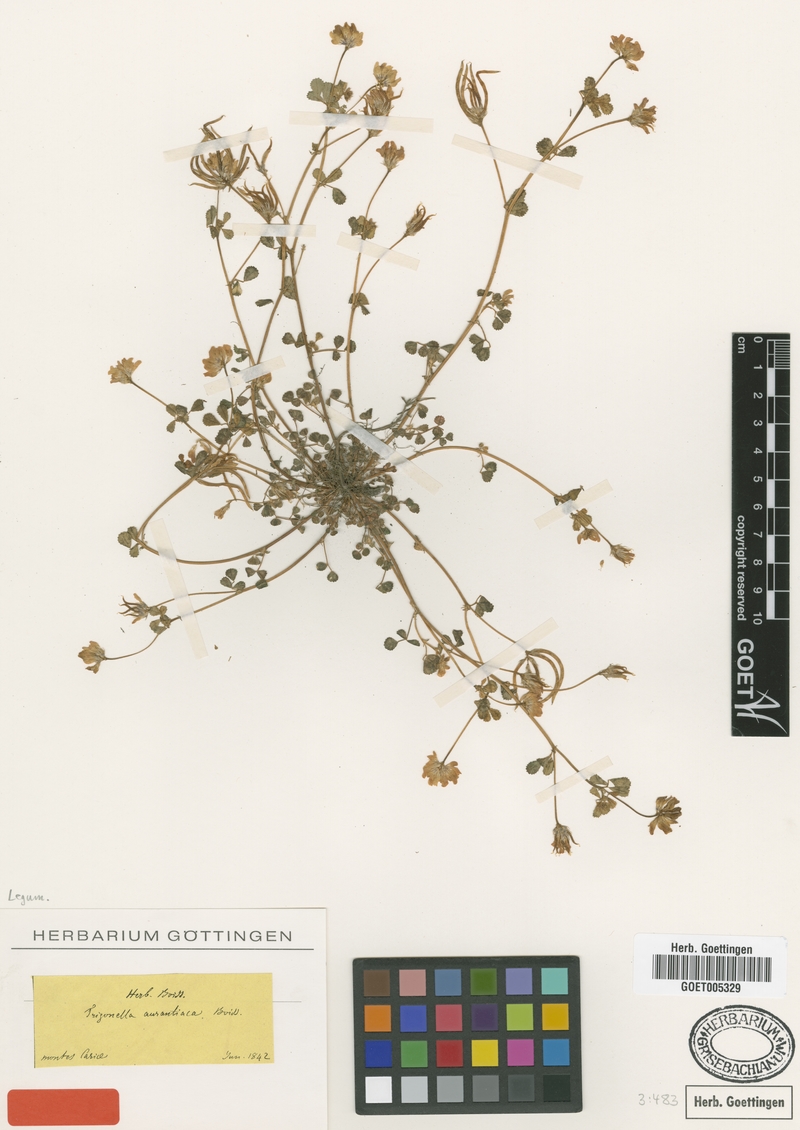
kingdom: Plantae
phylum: Tracheophyta
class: Magnoliopsida
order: Fabales
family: Fabaceae
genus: Medicago
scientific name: Medicago phrygia
